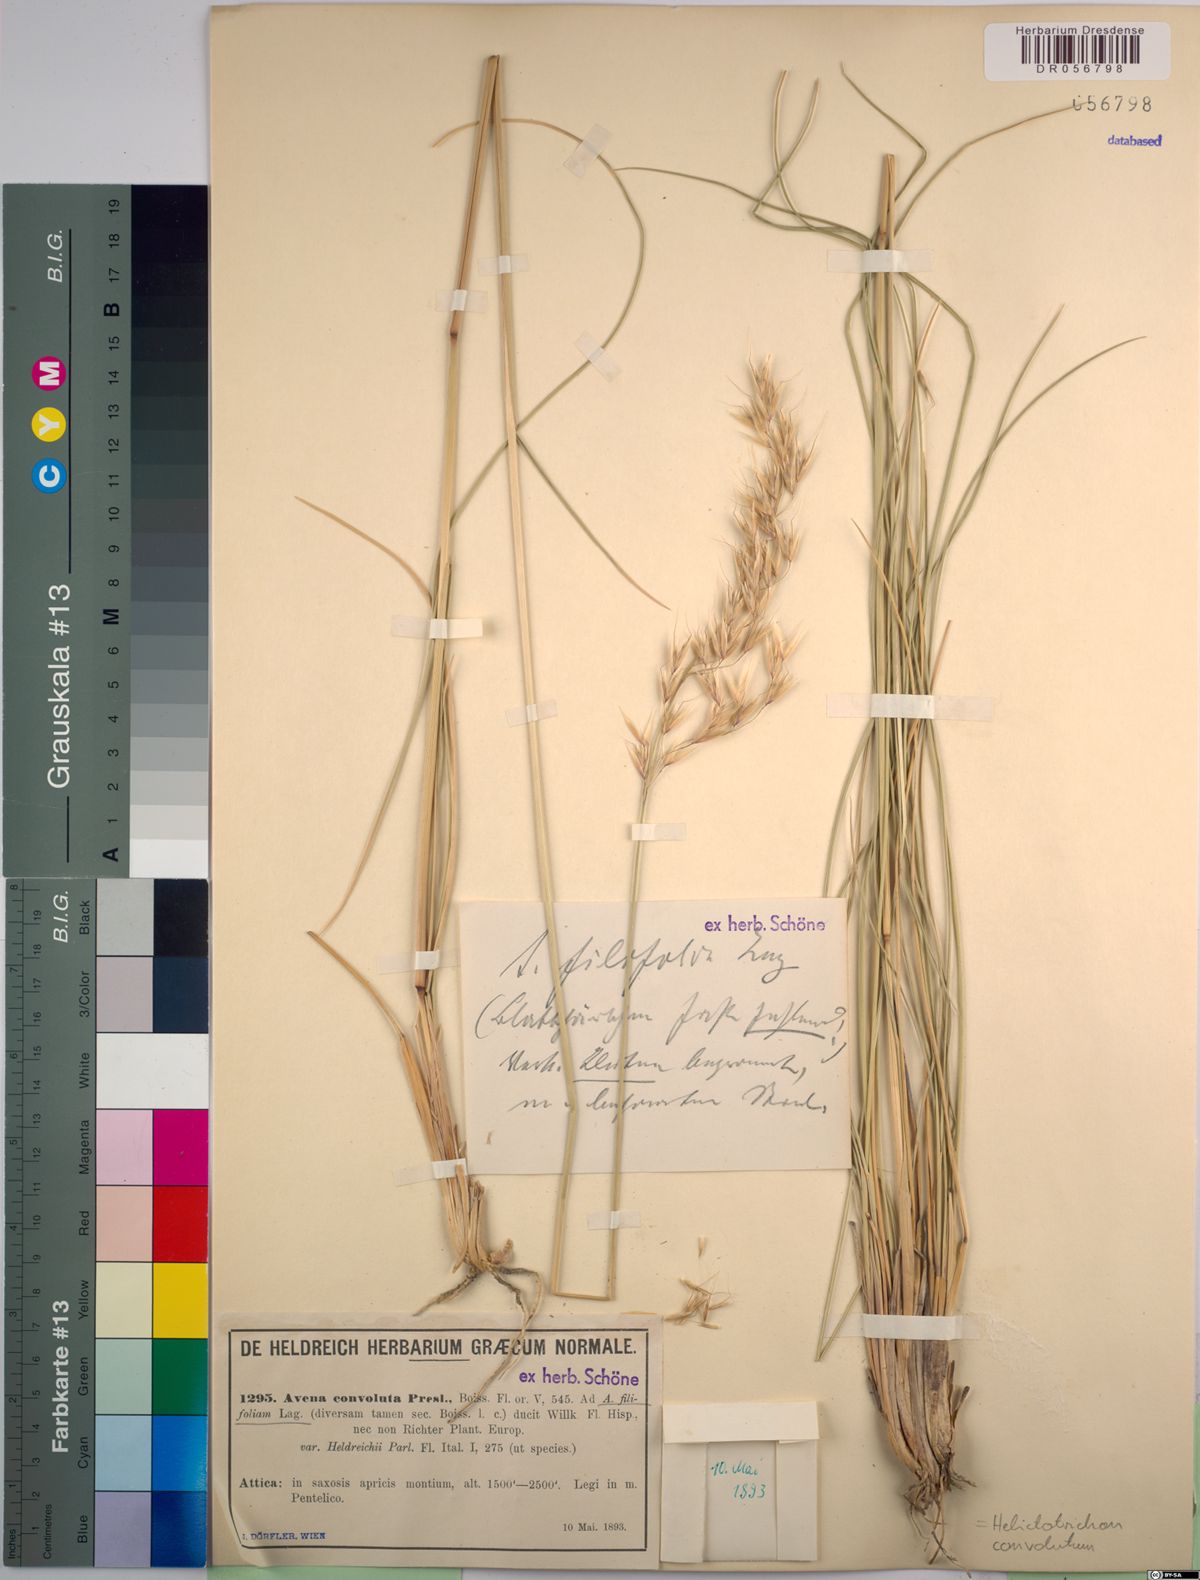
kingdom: Plantae
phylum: Tracheophyta
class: Liliopsida
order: Poales
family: Poaceae
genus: Helictotrichon
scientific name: Helictotrichon convolutum
